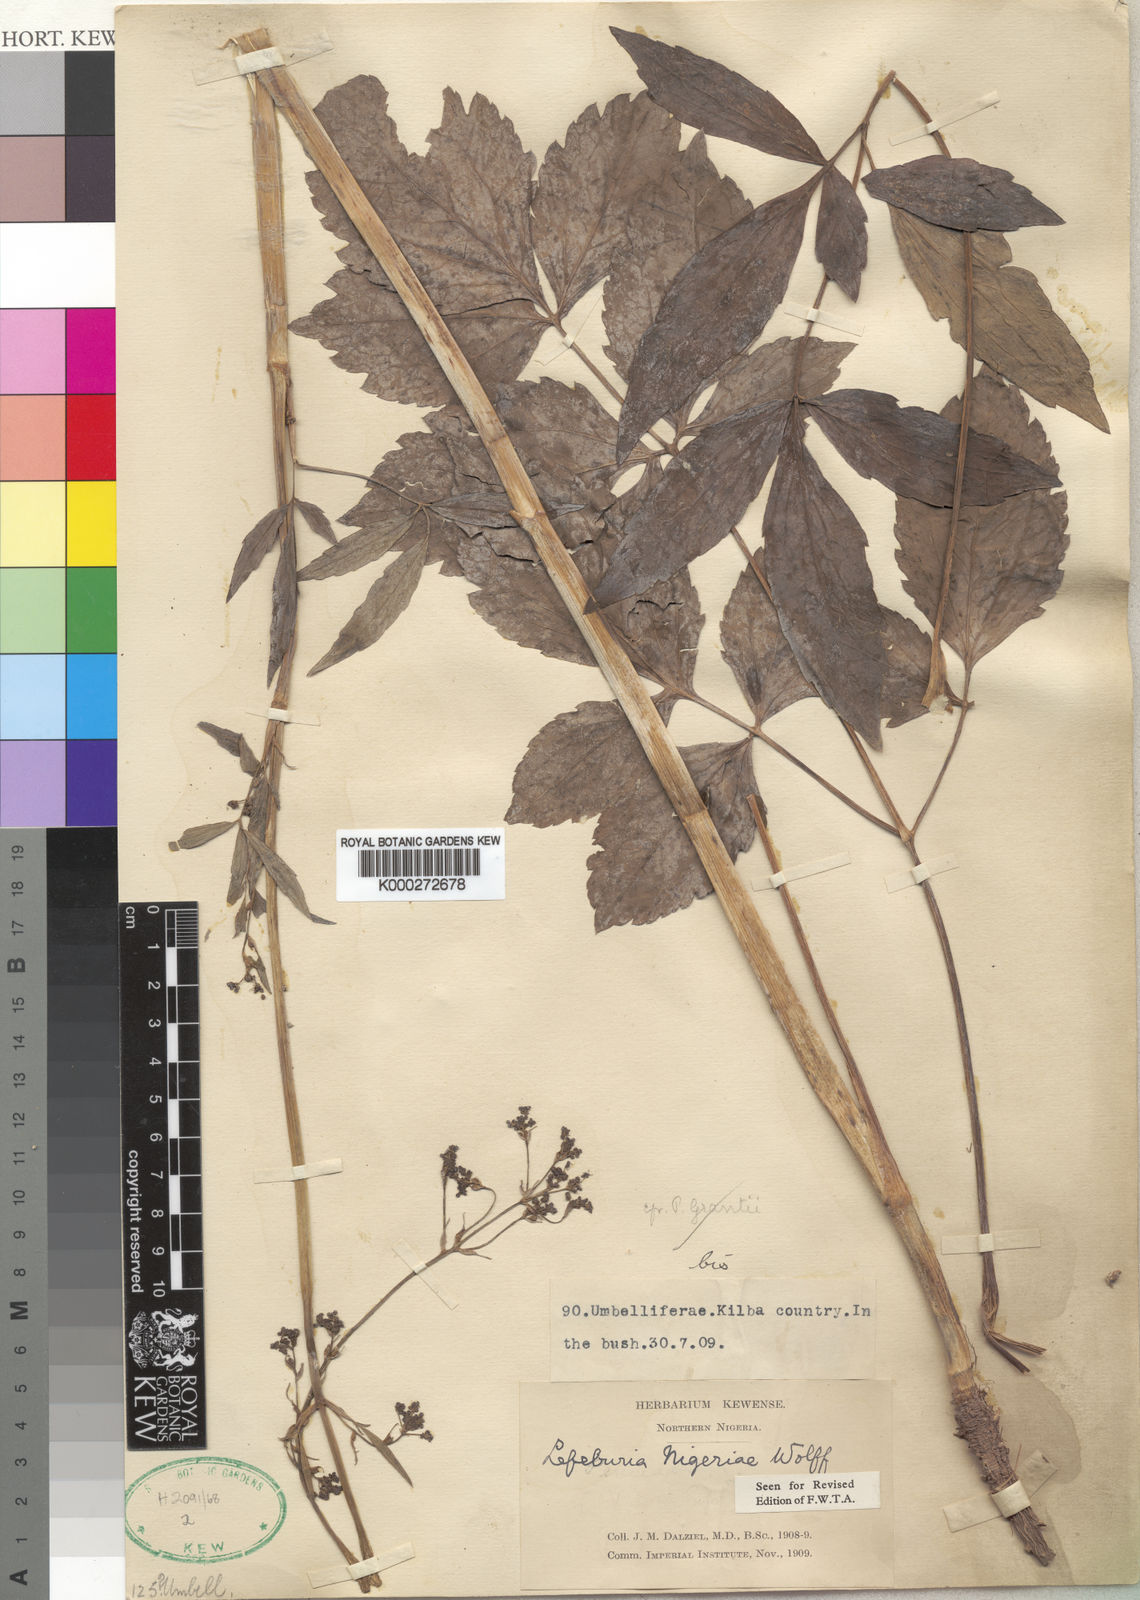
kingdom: Plantae
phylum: Tracheophyta
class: Magnoliopsida
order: Apiales
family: Apiaceae
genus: Lefebvrea
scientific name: Lefebvrea grantii
